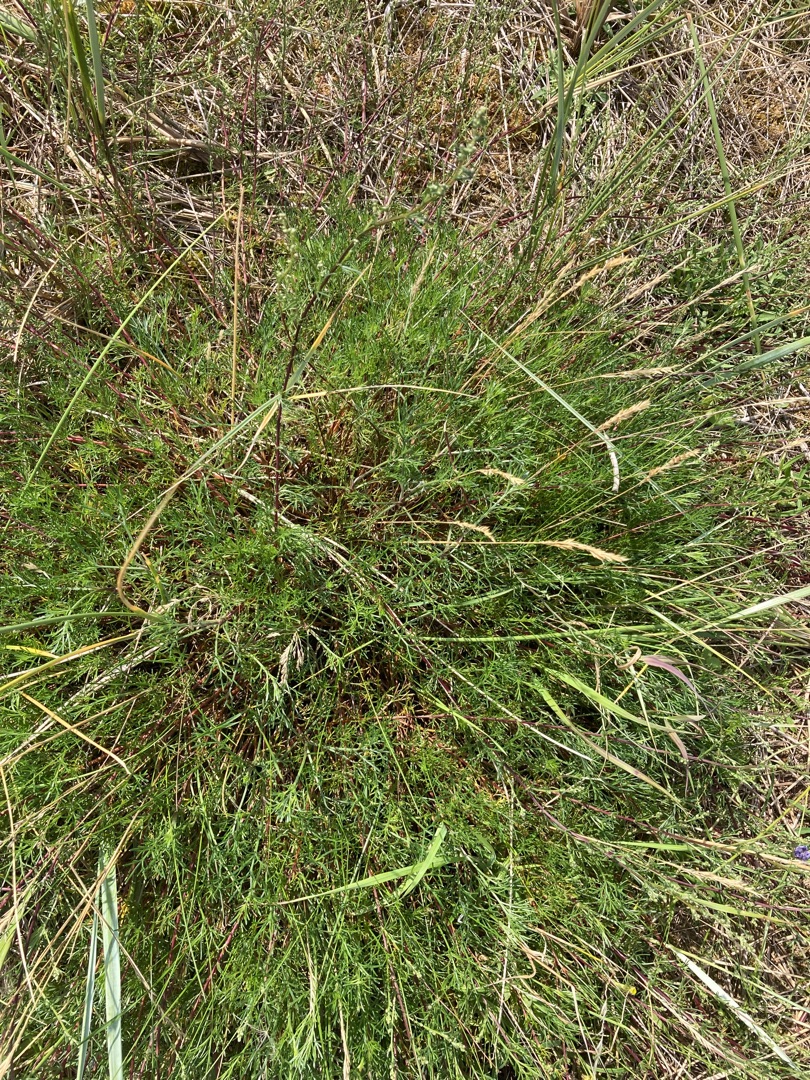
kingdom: Plantae
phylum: Tracheophyta
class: Magnoliopsida
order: Asterales
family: Asteraceae
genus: Artemisia
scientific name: Artemisia campestris
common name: Mark-bynke
